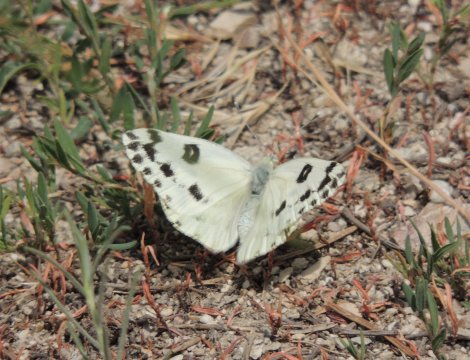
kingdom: Animalia
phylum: Arthropoda
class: Insecta
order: Lepidoptera
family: Pieridae
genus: Pontia
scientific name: Pontia beckerii
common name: Becker's White
